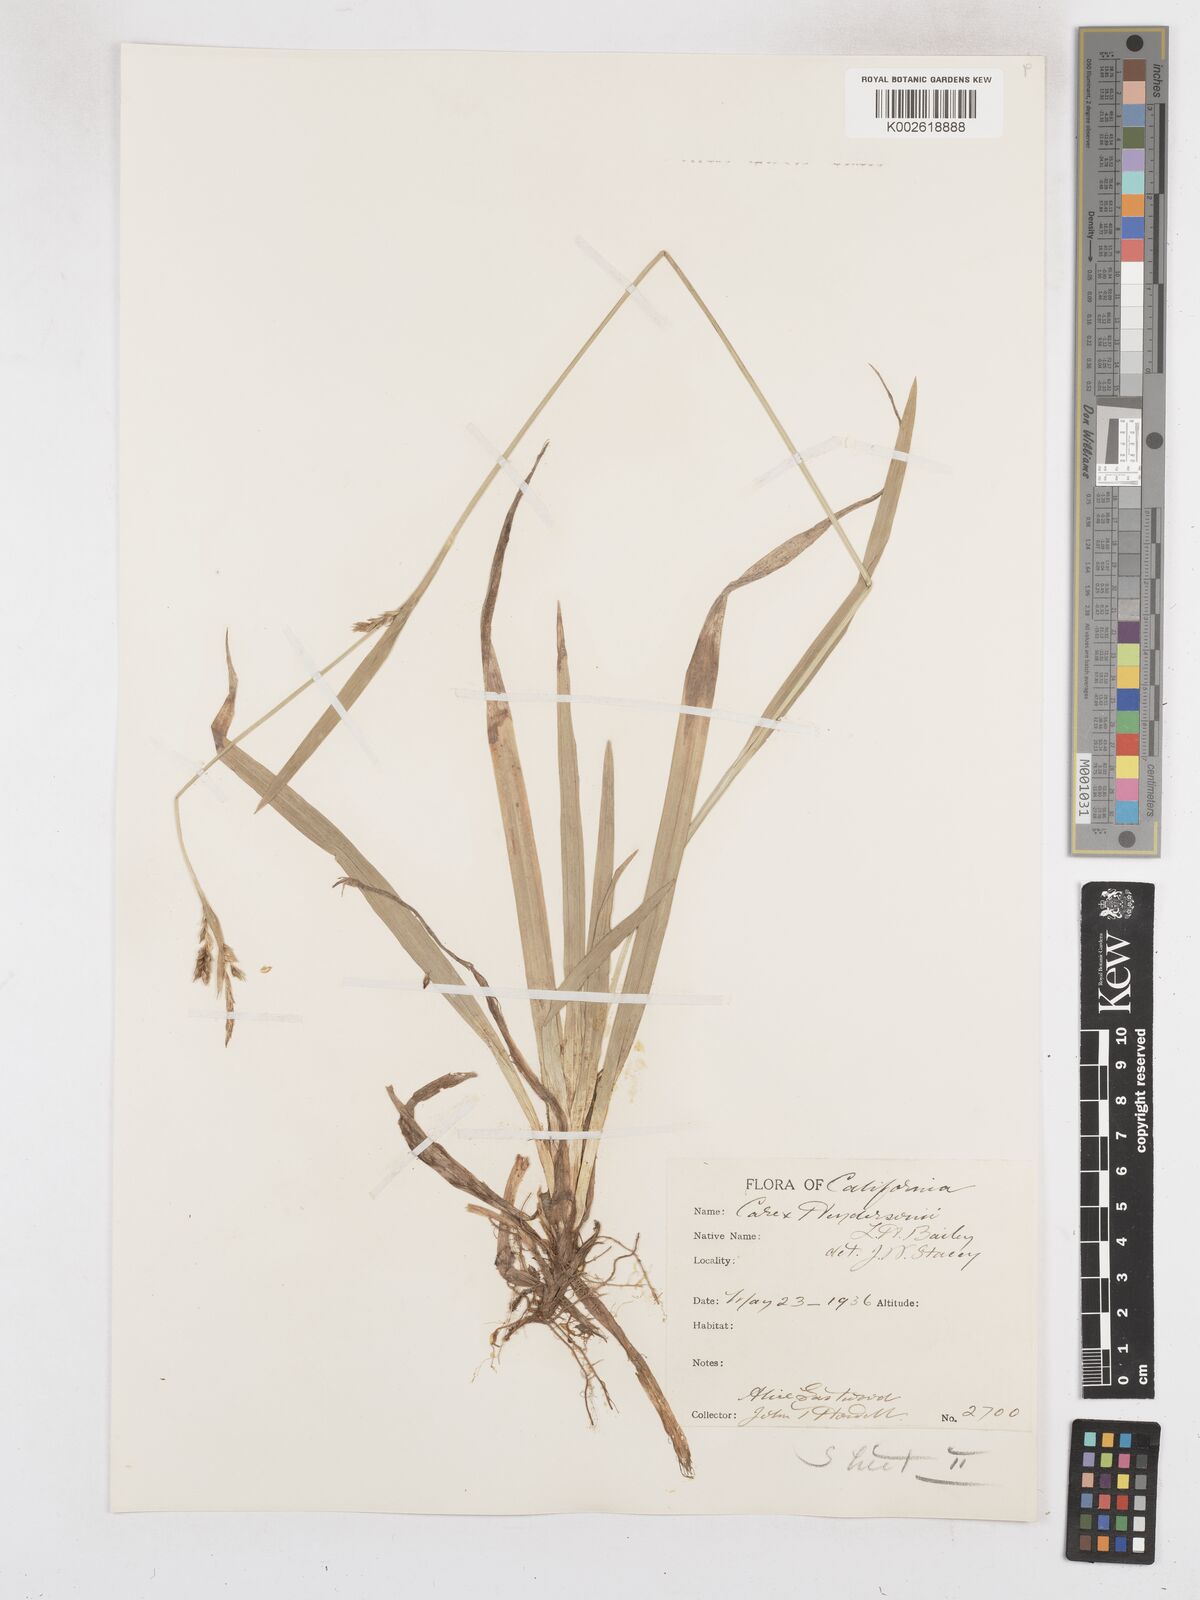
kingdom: Plantae
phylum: Tracheophyta
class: Liliopsida
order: Poales
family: Cyperaceae
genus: Carex
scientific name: Carex hendersonii
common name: Henderson's sedge
